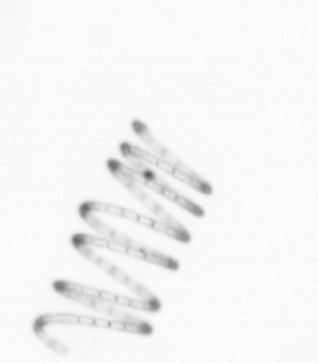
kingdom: Chromista
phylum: Ochrophyta
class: Bacillariophyceae
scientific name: Bacillariophyceae
